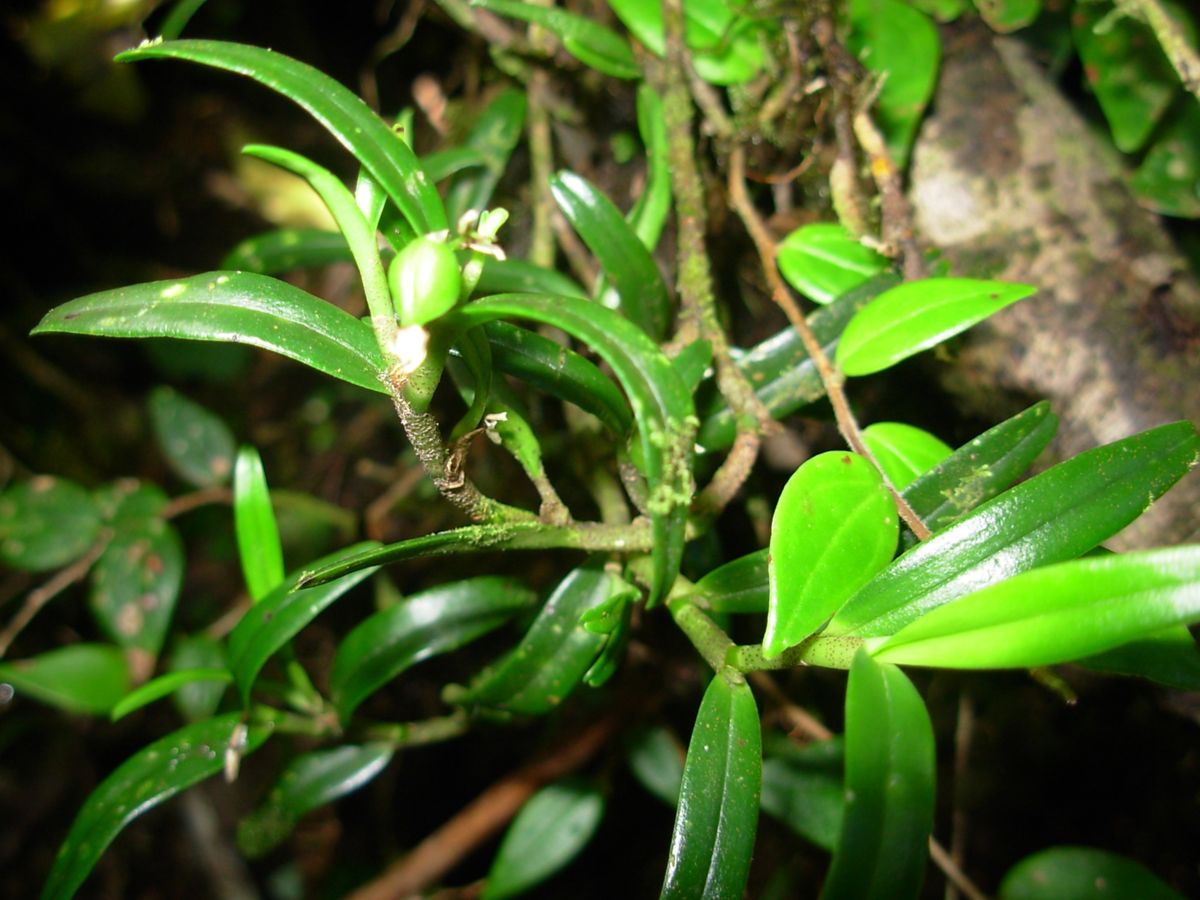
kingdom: Plantae
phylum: Tracheophyta
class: Liliopsida
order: Asparagales
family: Orchidaceae
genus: Epidendrum
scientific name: Epidendrum pseudoramosum
